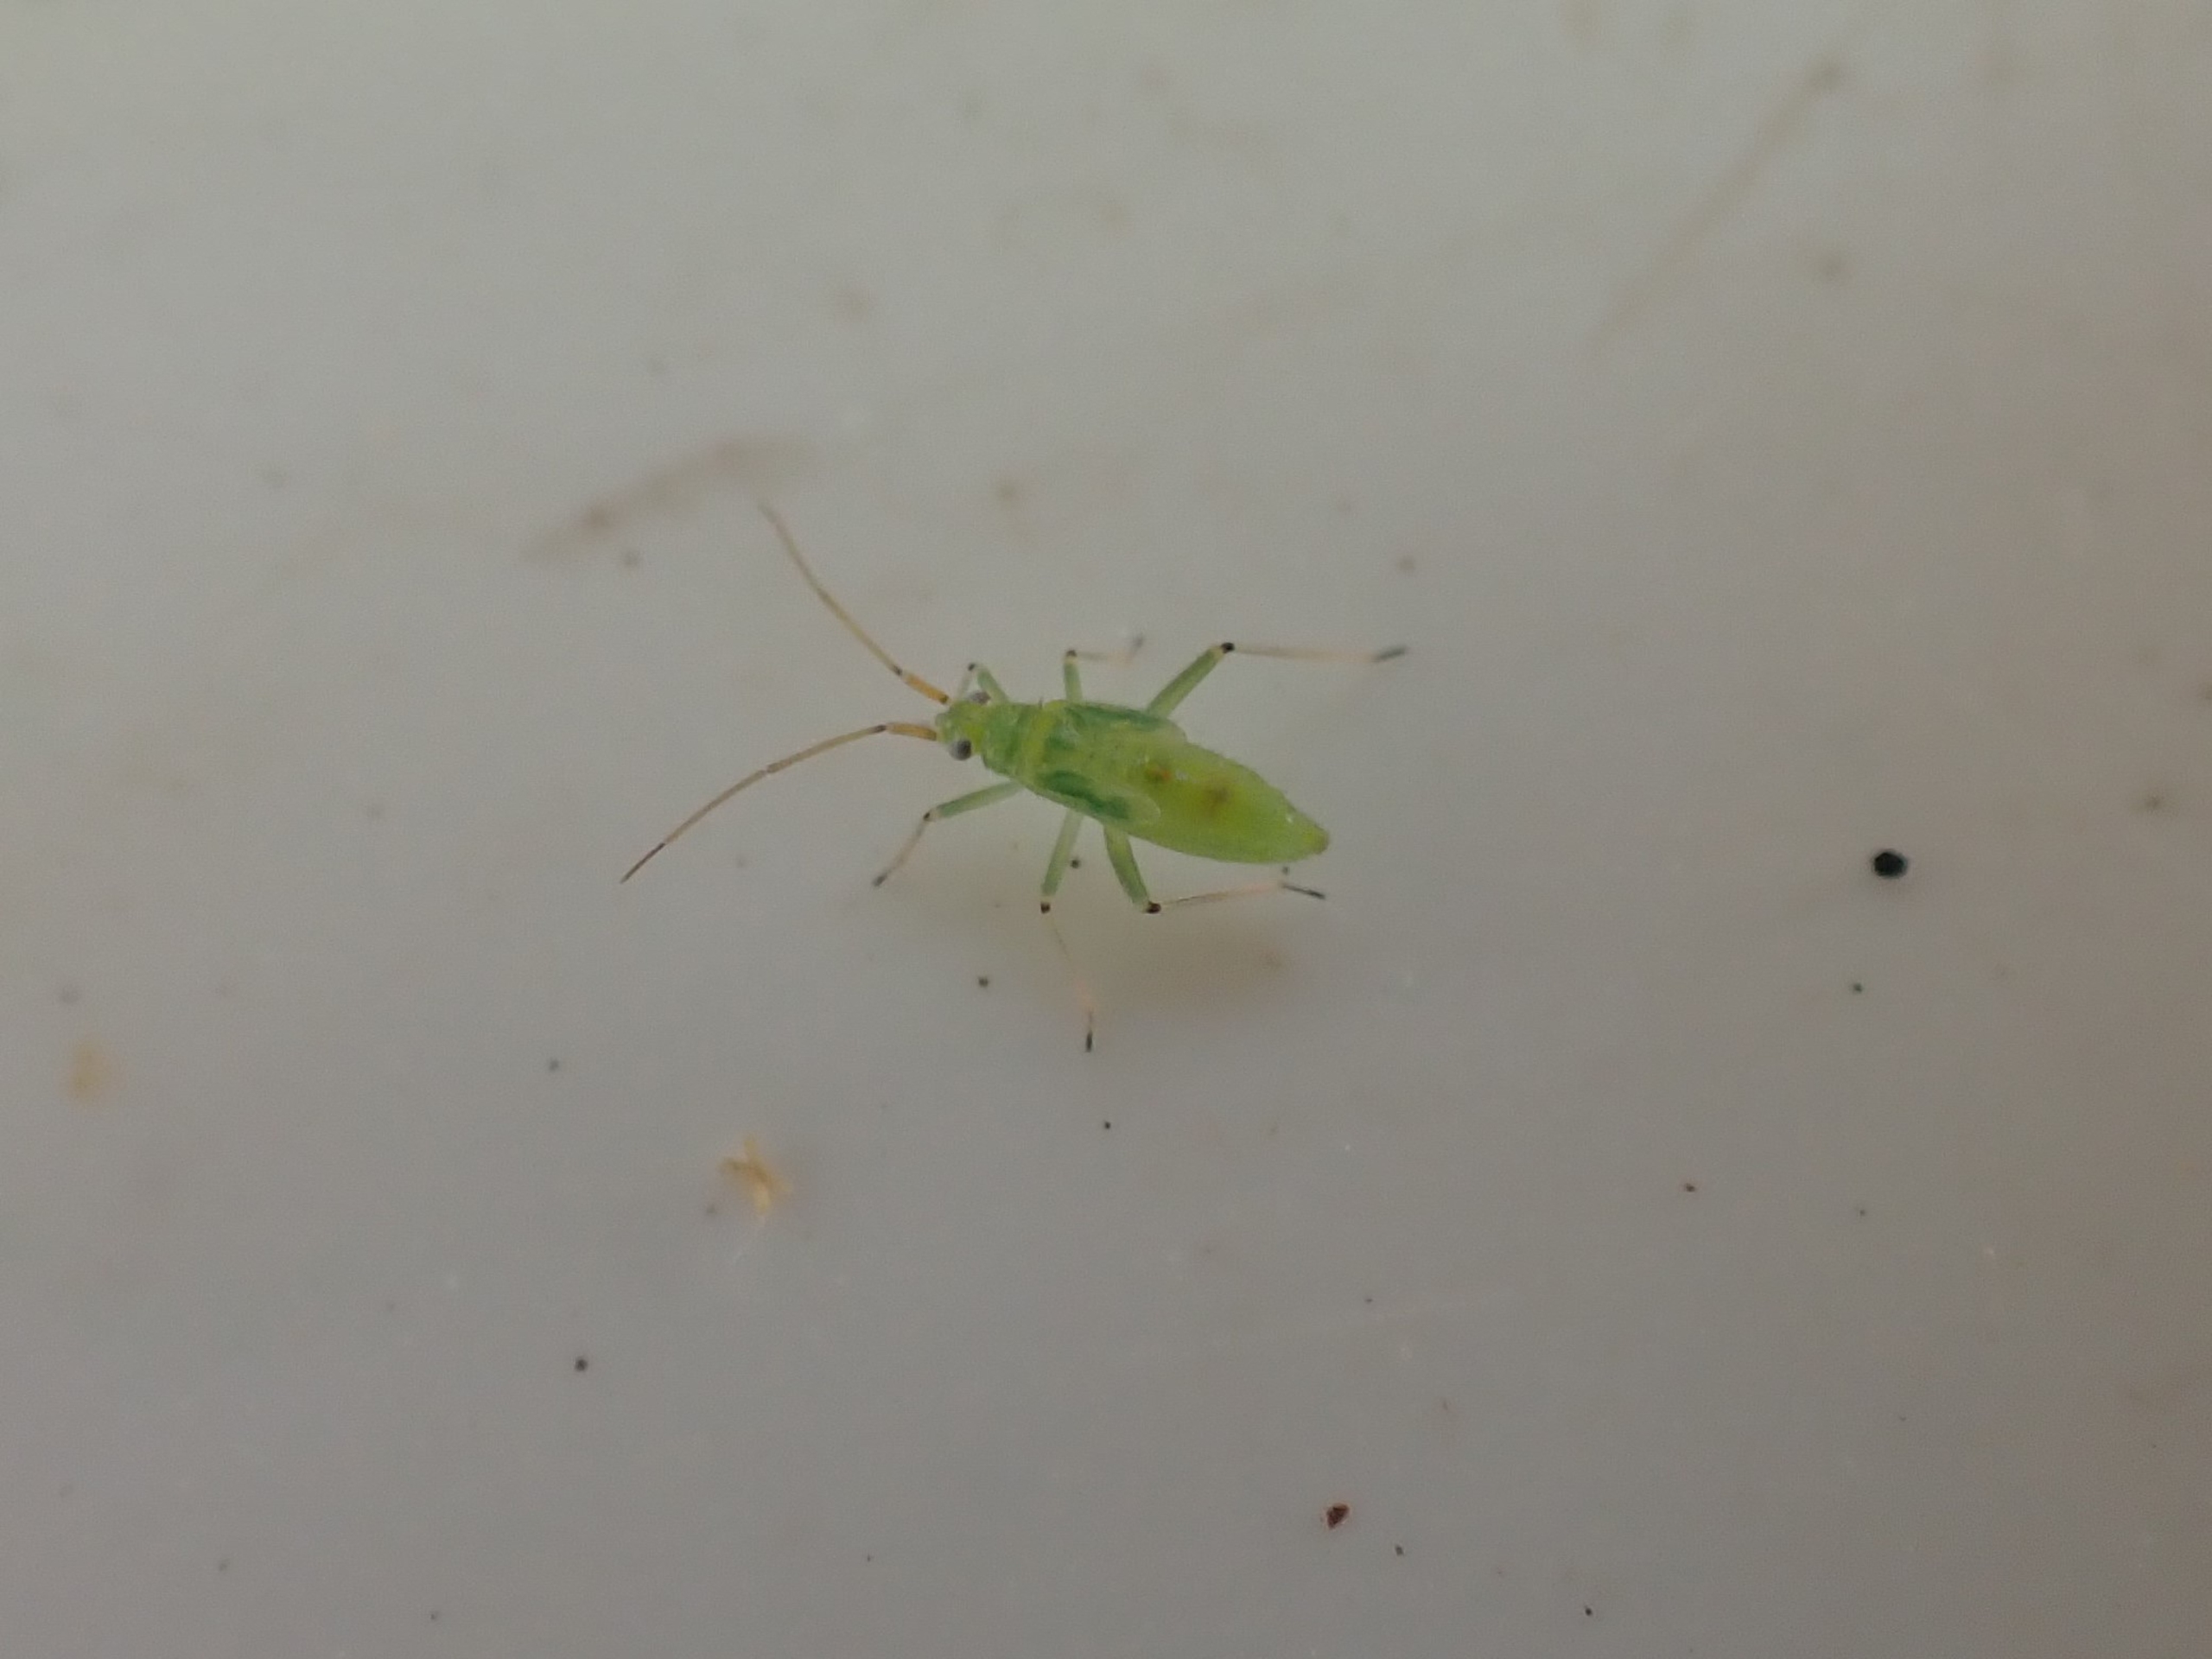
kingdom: Animalia
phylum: Arthropoda
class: Insecta
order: Hemiptera
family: Miridae
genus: Blepharidopterus
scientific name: Blepharidopterus angulatus
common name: Sortknæet blomstertæge
